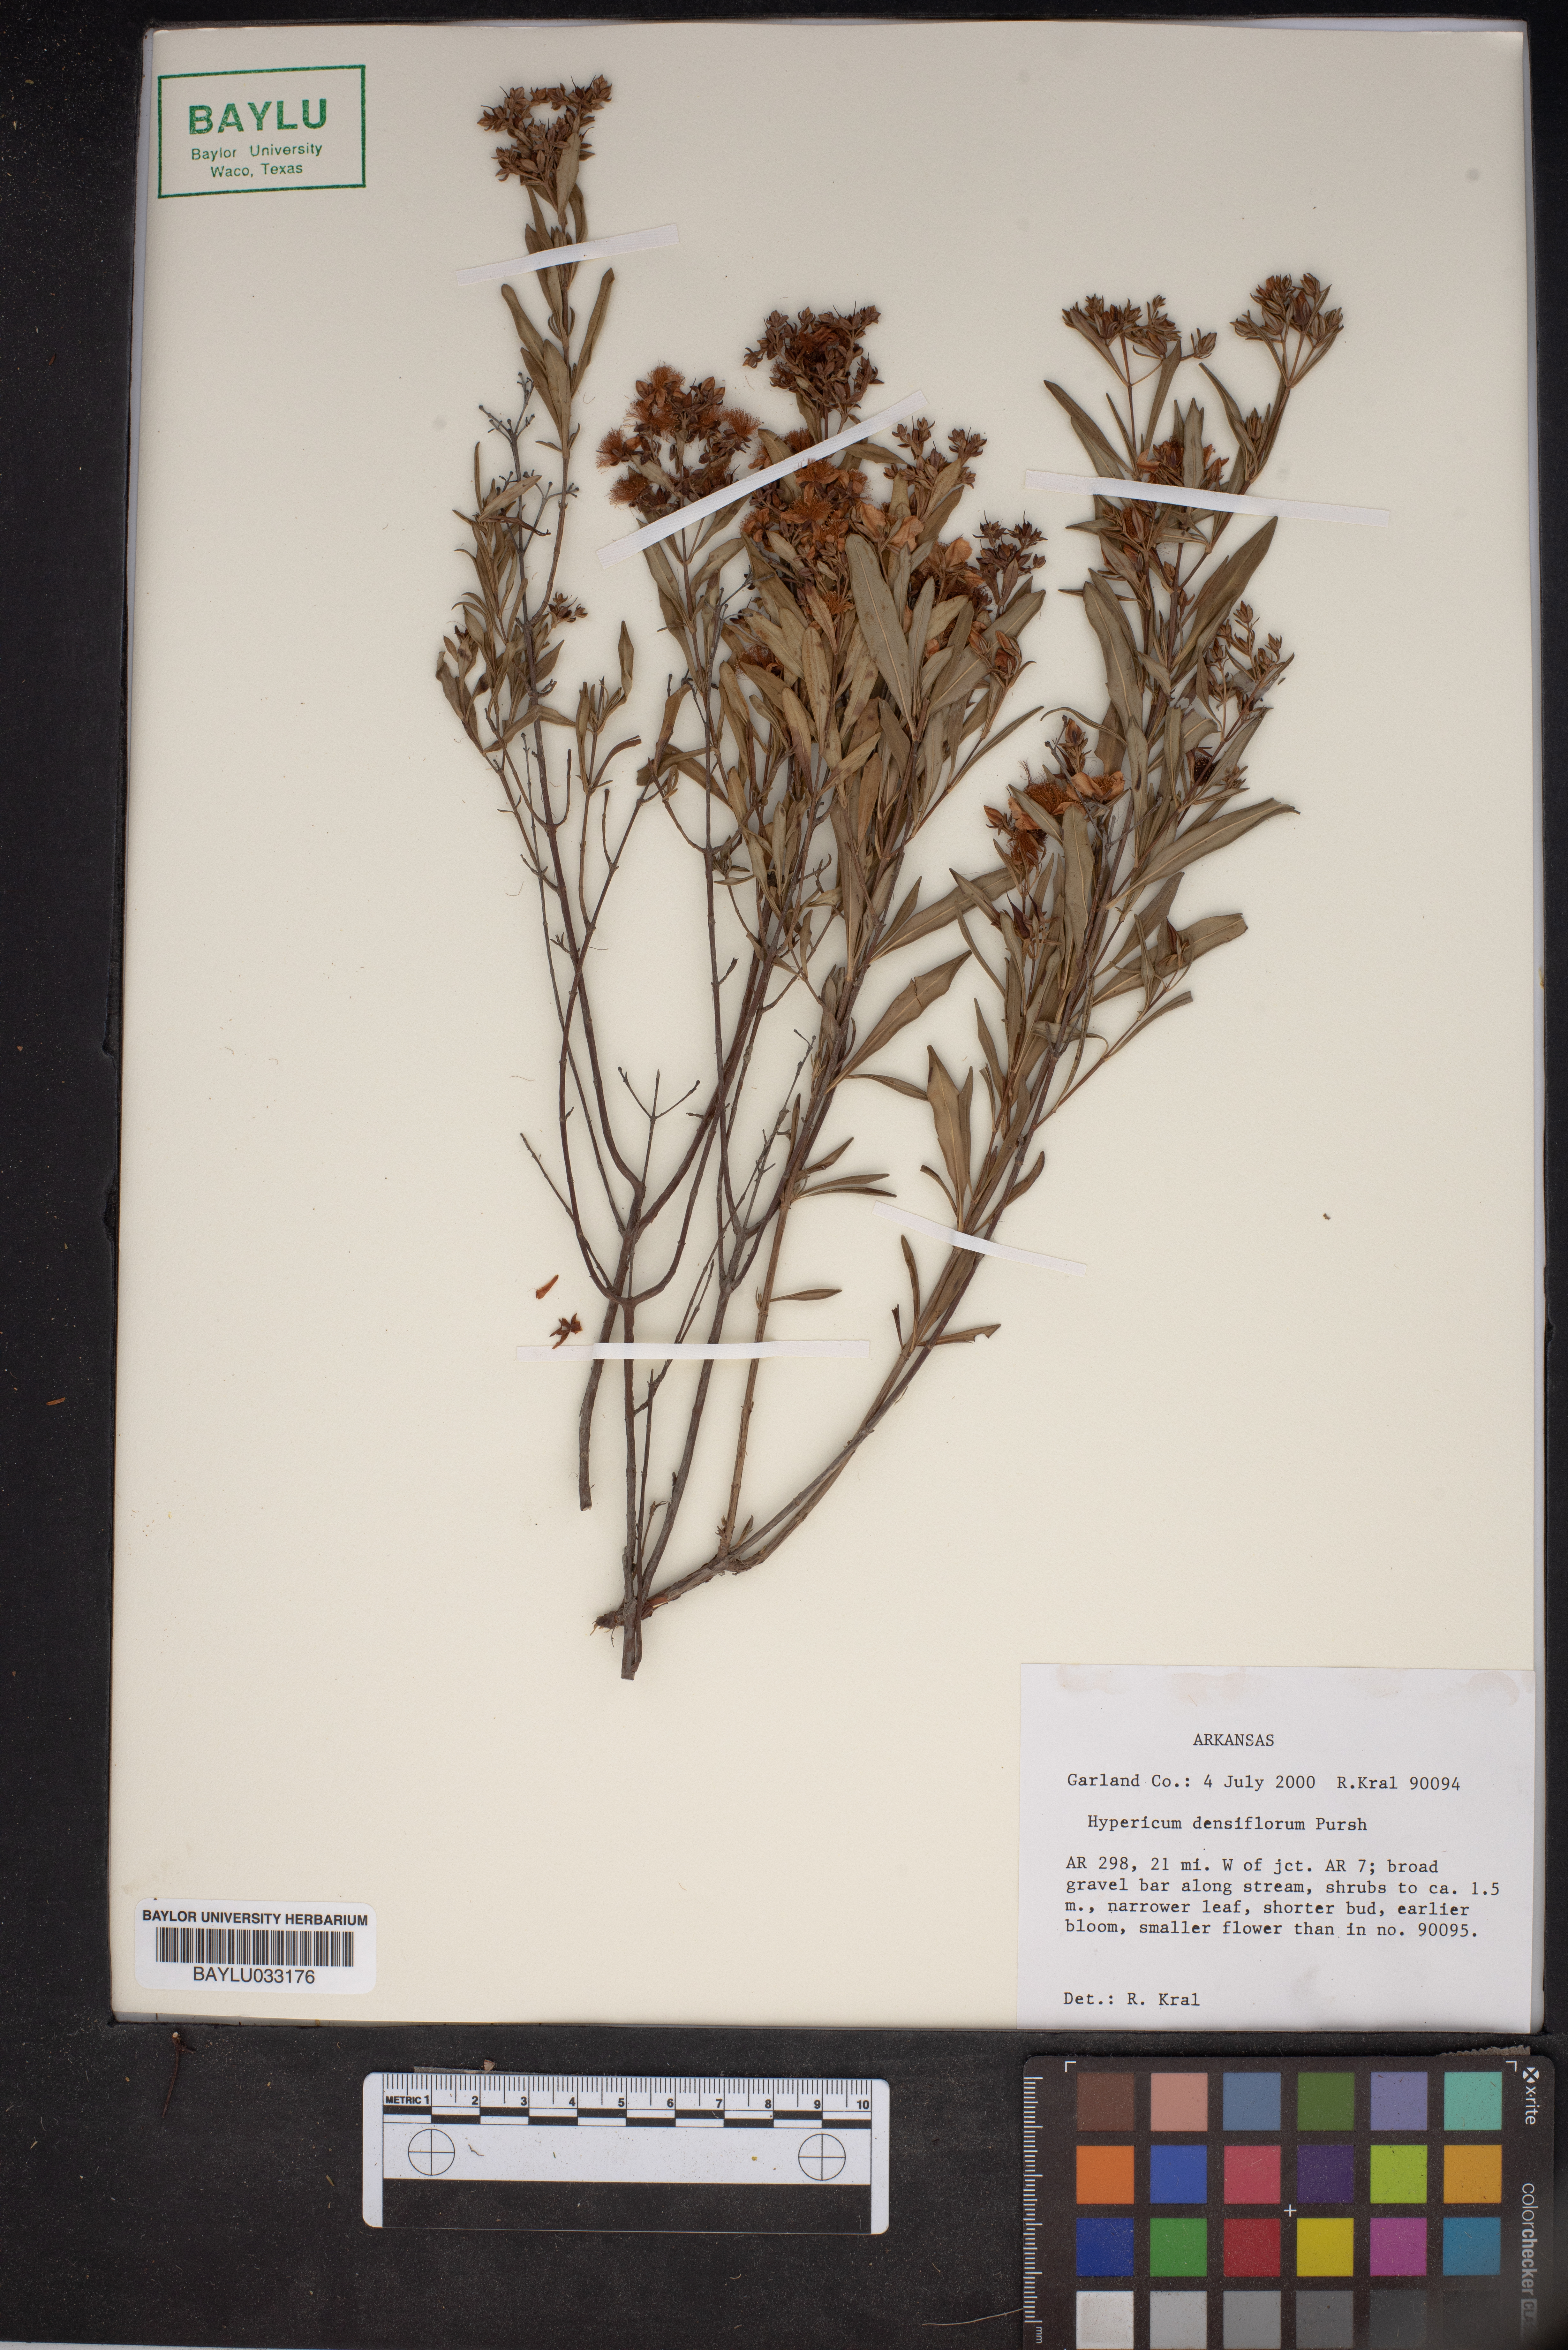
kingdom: Plantae
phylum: Tracheophyta
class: Magnoliopsida
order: Malpighiales
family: Hypericaceae
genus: Hypericum
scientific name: Hypericum densiflorum
